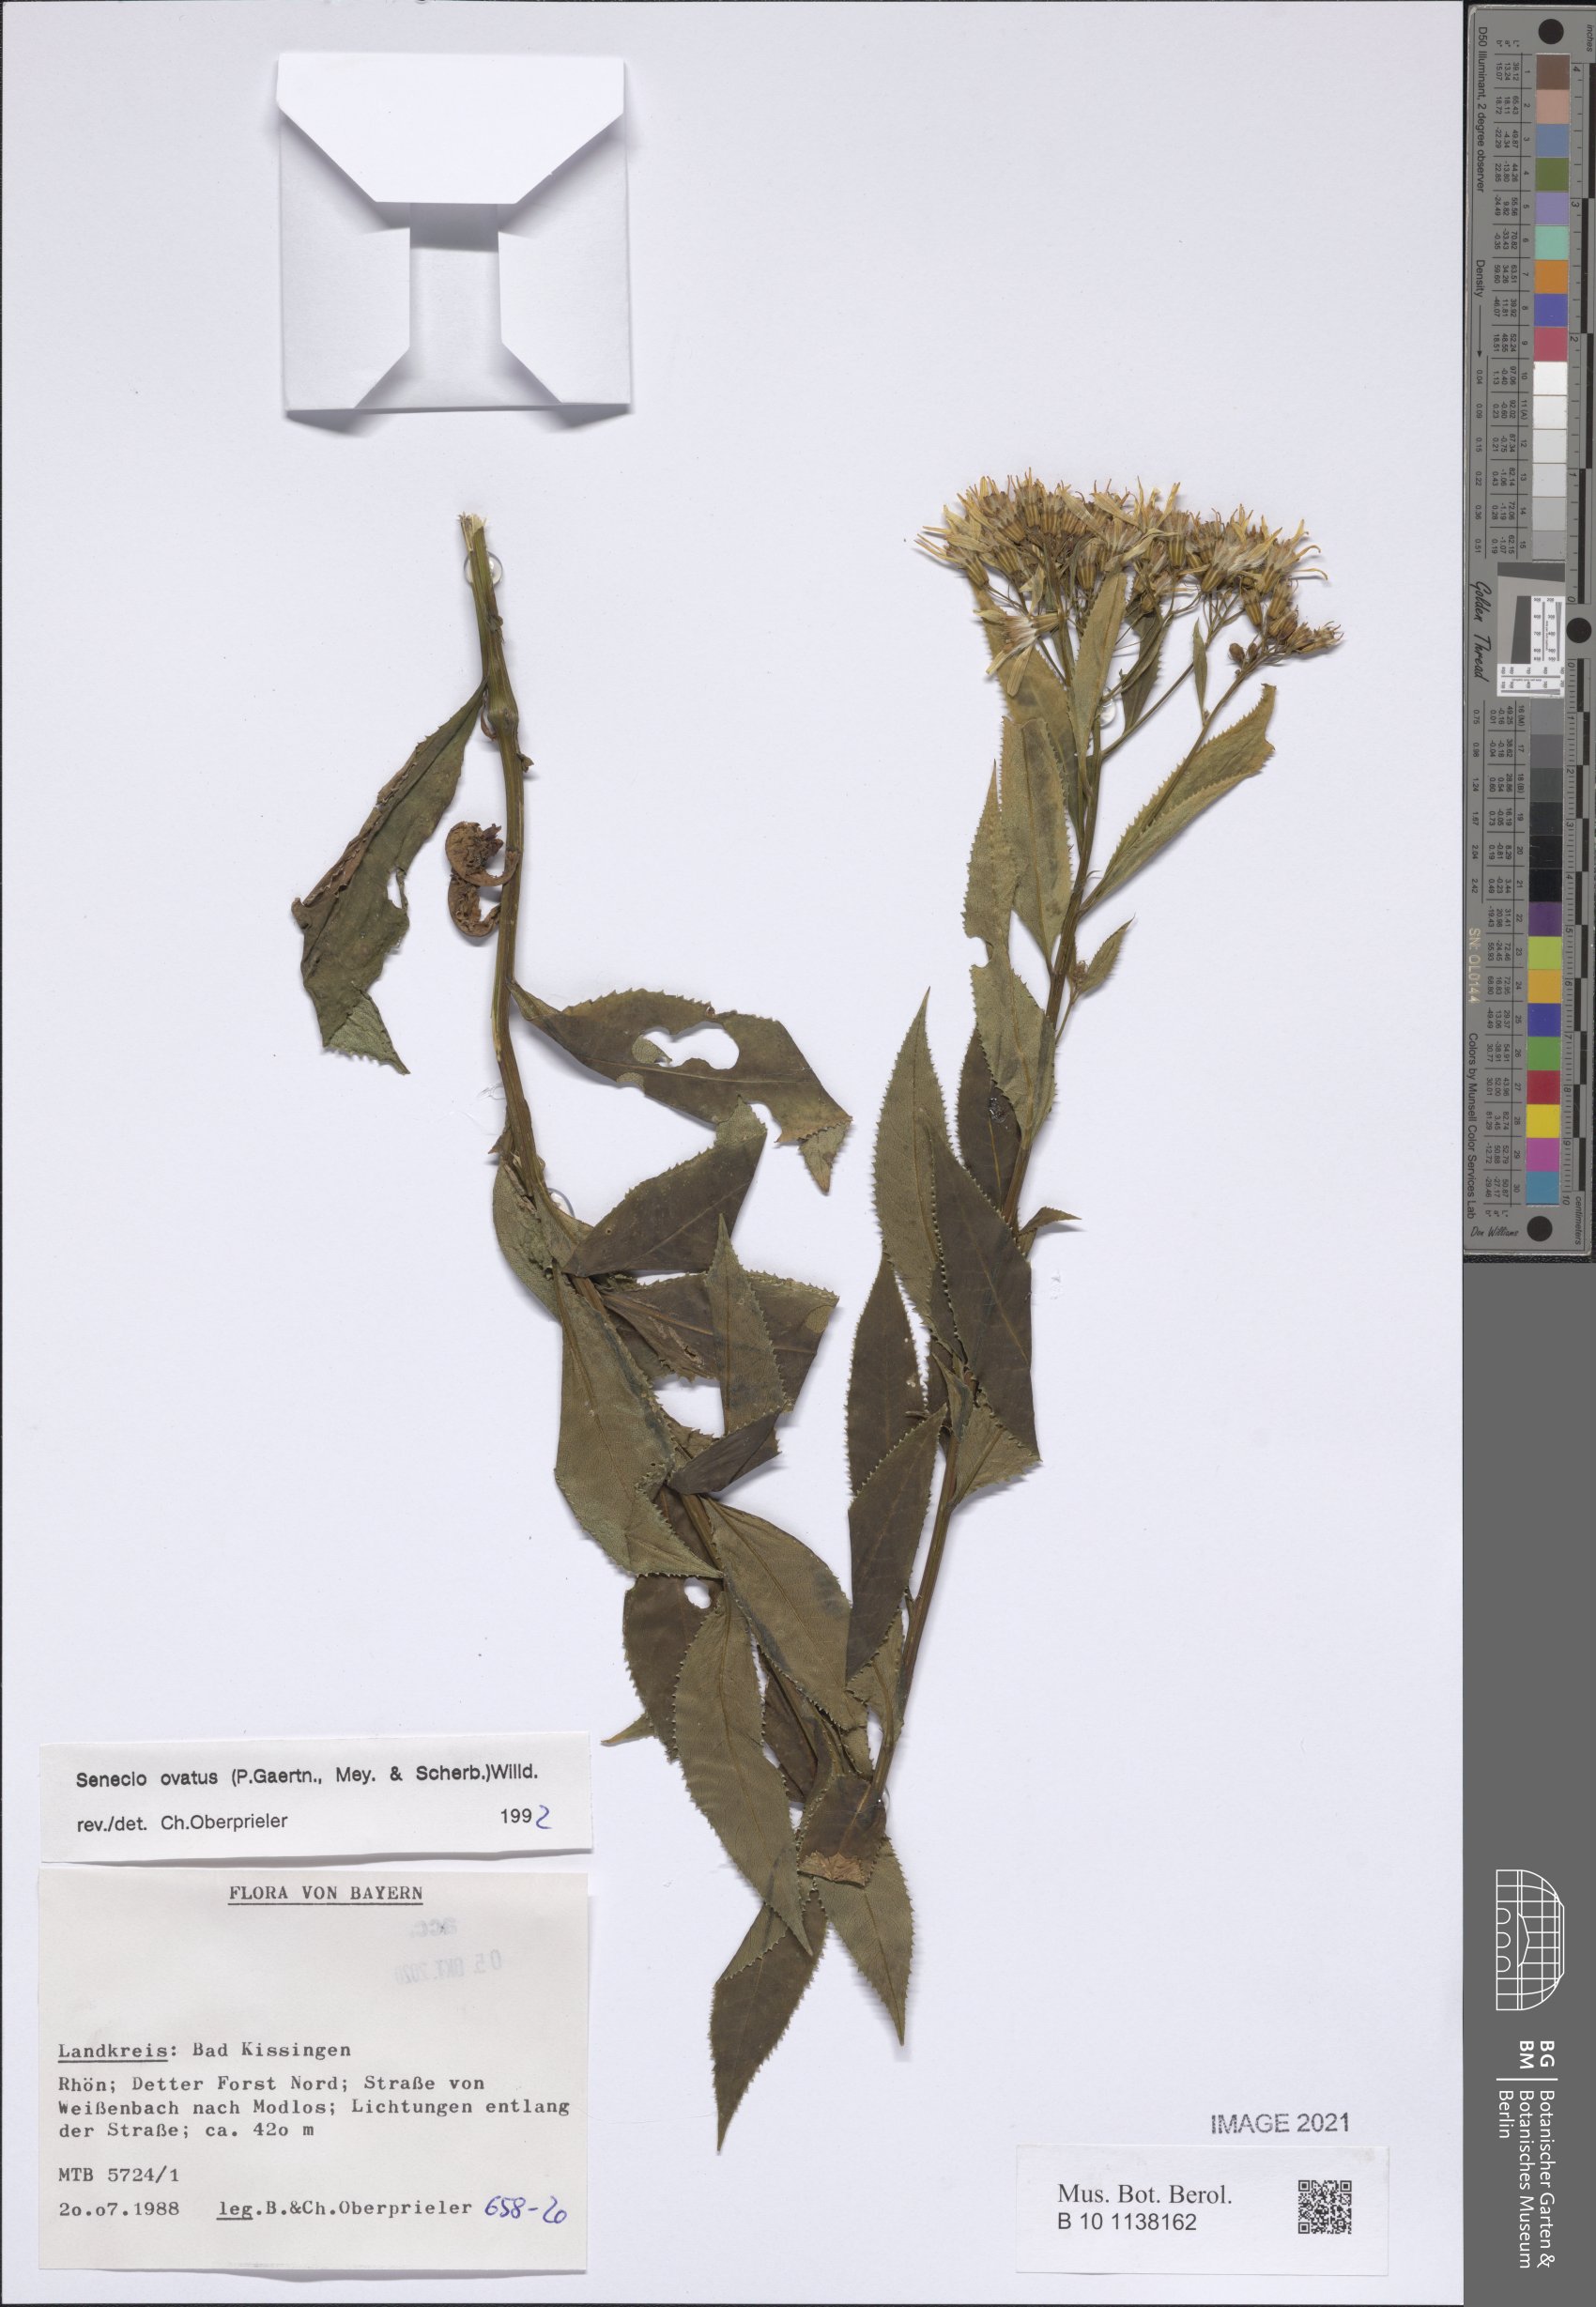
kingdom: Plantae
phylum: Tracheophyta
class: Magnoliopsida
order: Asterales
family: Asteraceae
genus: Senecio
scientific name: Senecio ovatus
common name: Wood ragwort
